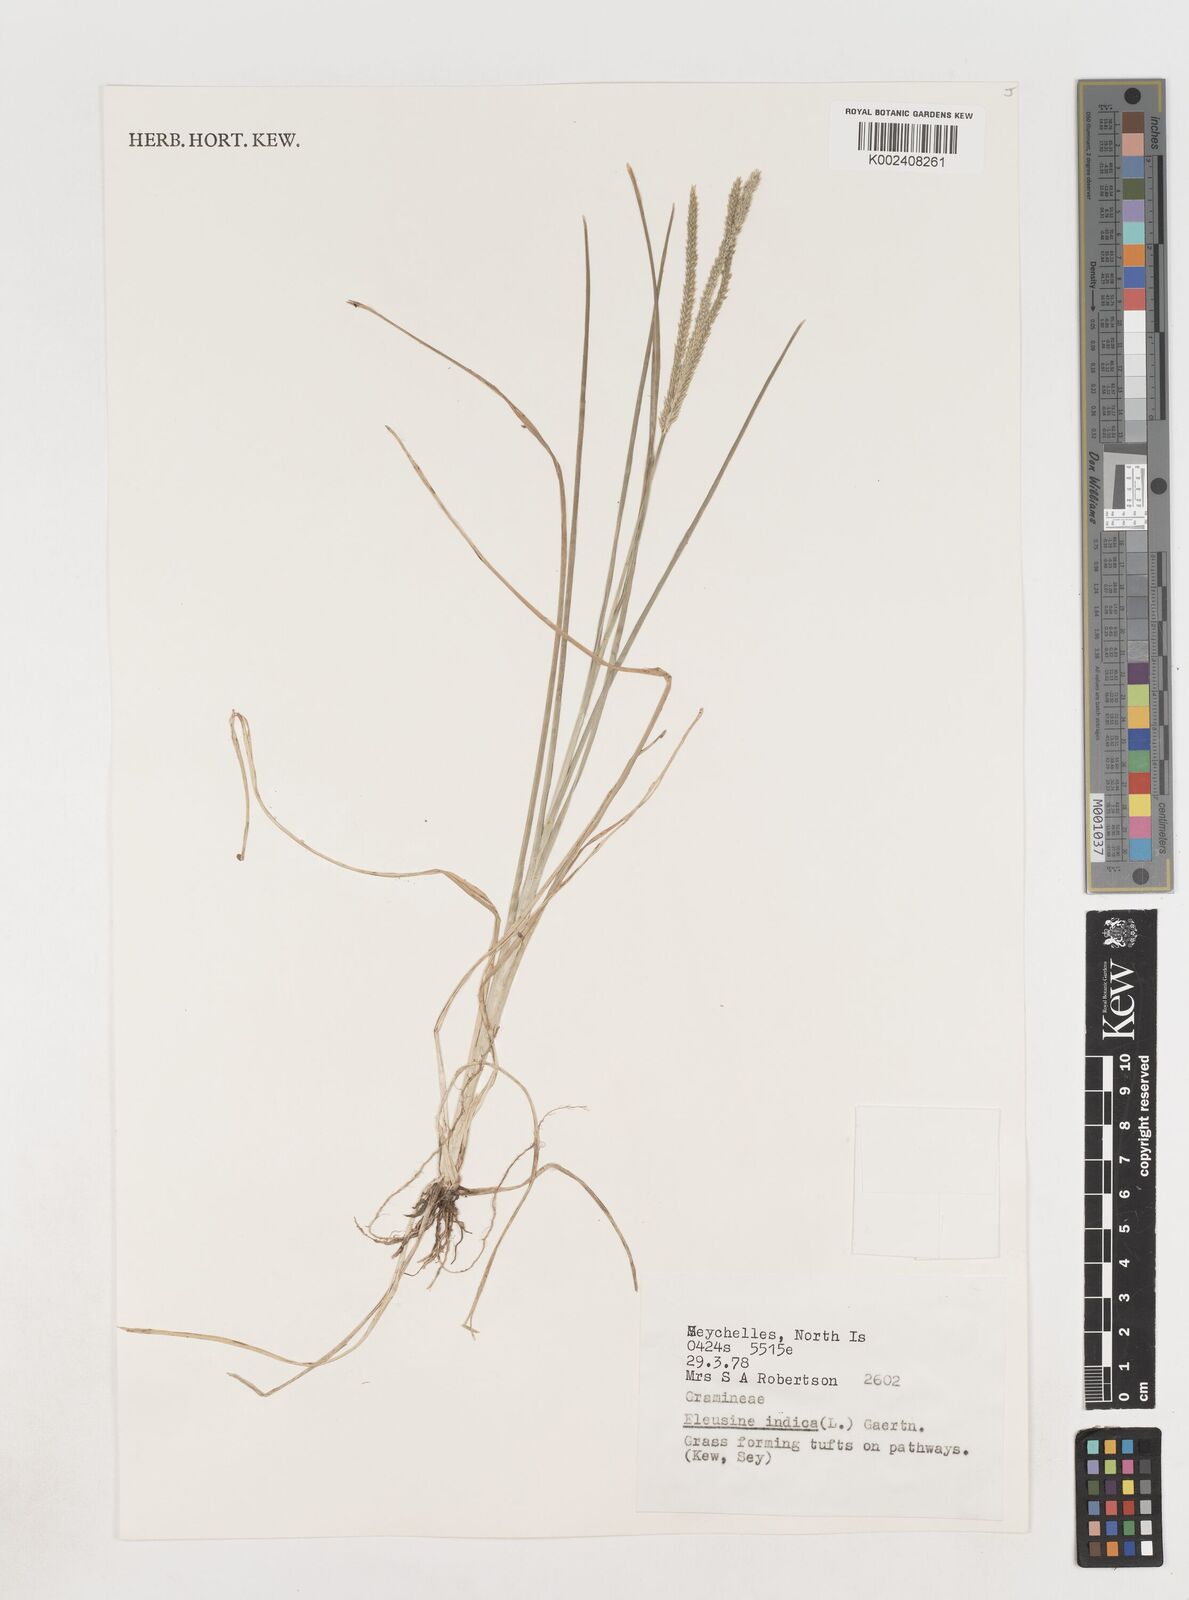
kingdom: Plantae
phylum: Tracheophyta
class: Liliopsida
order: Poales
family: Poaceae
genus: Eleusine
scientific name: Eleusine indica
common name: Yard-grass
